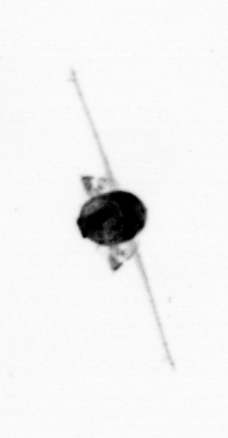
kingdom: Animalia
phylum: Arthropoda
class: Copepoda
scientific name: Copepoda
